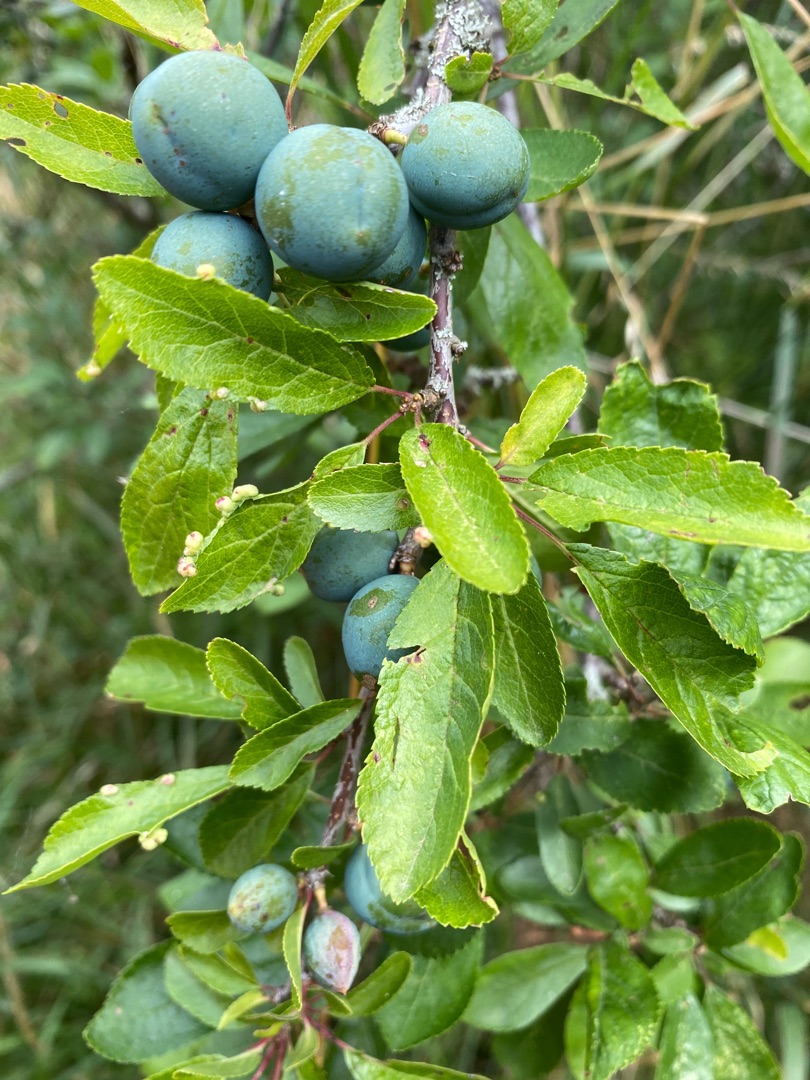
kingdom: Plantae
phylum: Tracheophyta
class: Magnoliopsida
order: Rosales
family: Rosaceae
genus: Prunus
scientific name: Prunus spinosa
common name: Slåen
